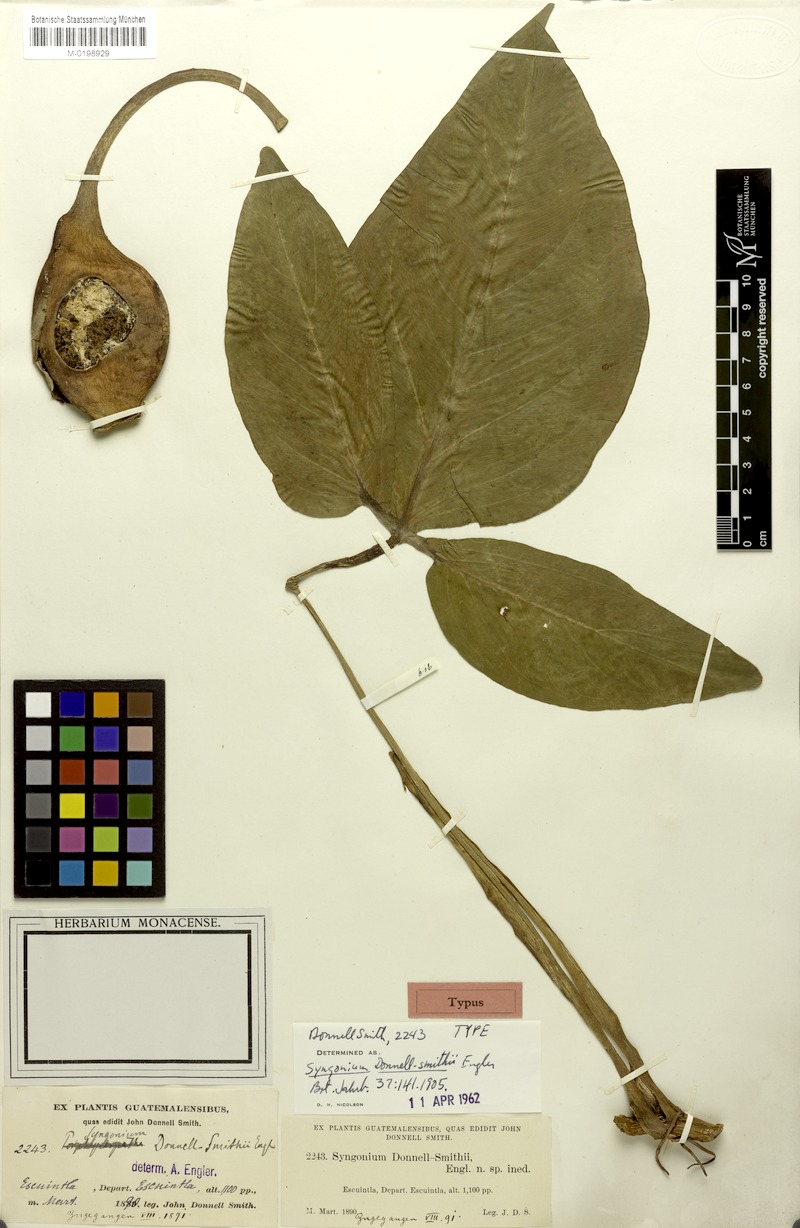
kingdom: Plantae
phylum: Tracheophyta
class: Liliopsida
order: Alismatales
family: Araceae
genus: Syngonium
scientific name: Syngonium salvadorense
